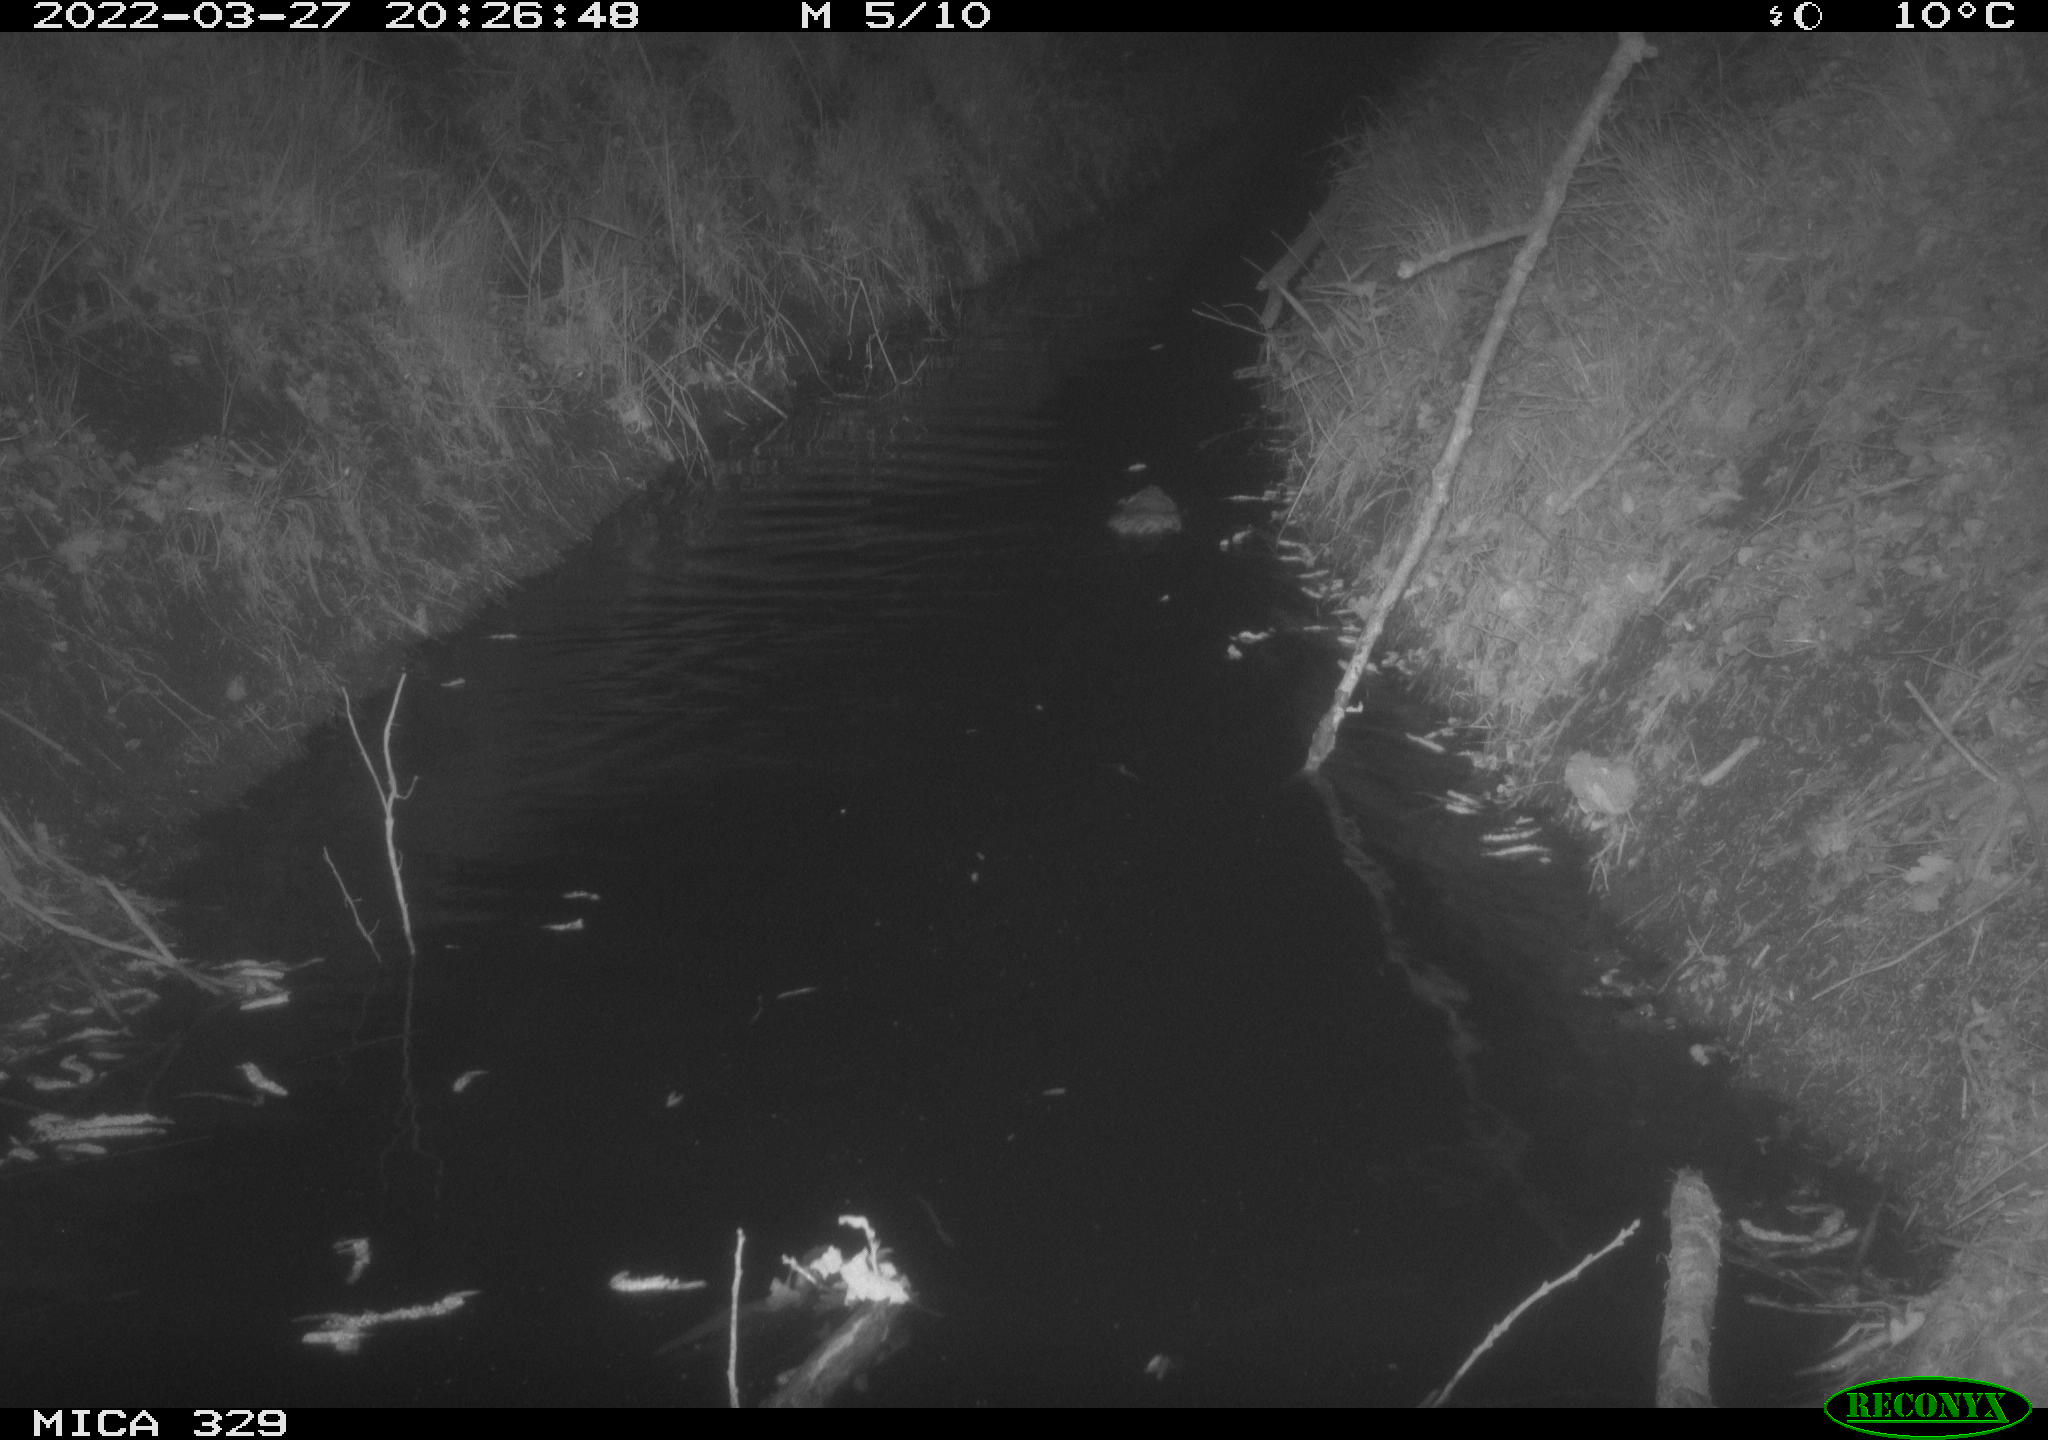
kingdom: Animalia
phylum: Chordata
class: Mammalia
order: Rodentia
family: Cricetidae
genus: Ondatra
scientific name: Ondatra zibethicus
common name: Muskrat
